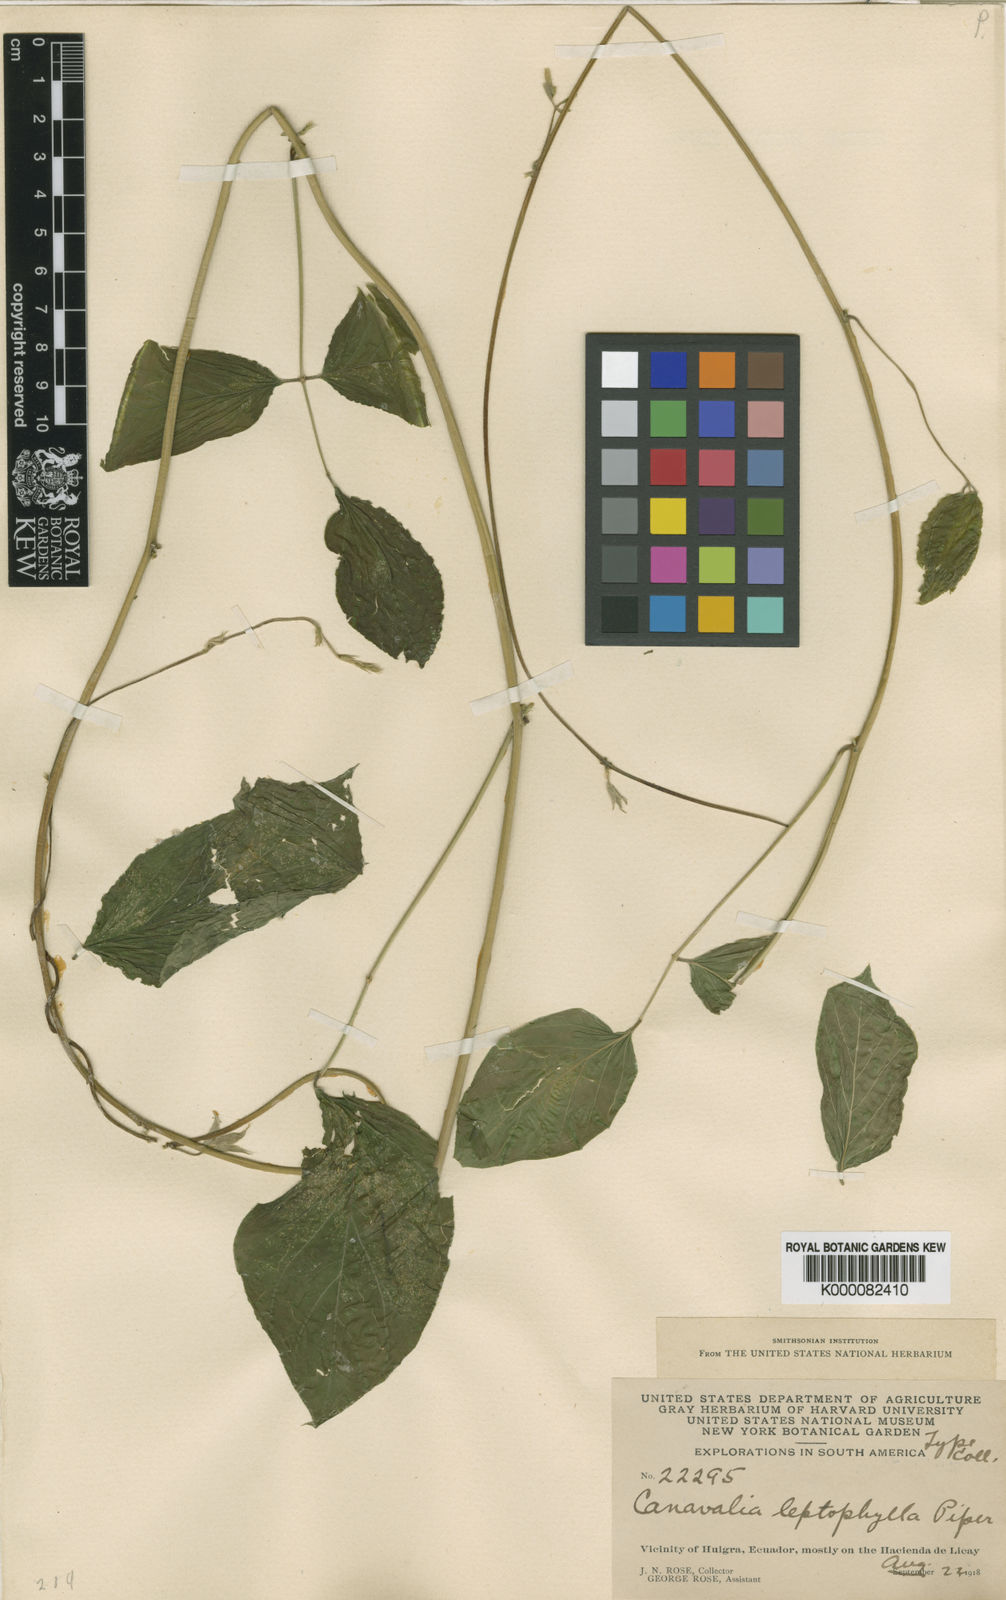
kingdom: Plantae
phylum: Tracheophyta
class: Magnoliopsida
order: Fabales
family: Fabaceae
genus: Canavalia
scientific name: Canavalia brasiliensis
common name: Barbicou-bean
